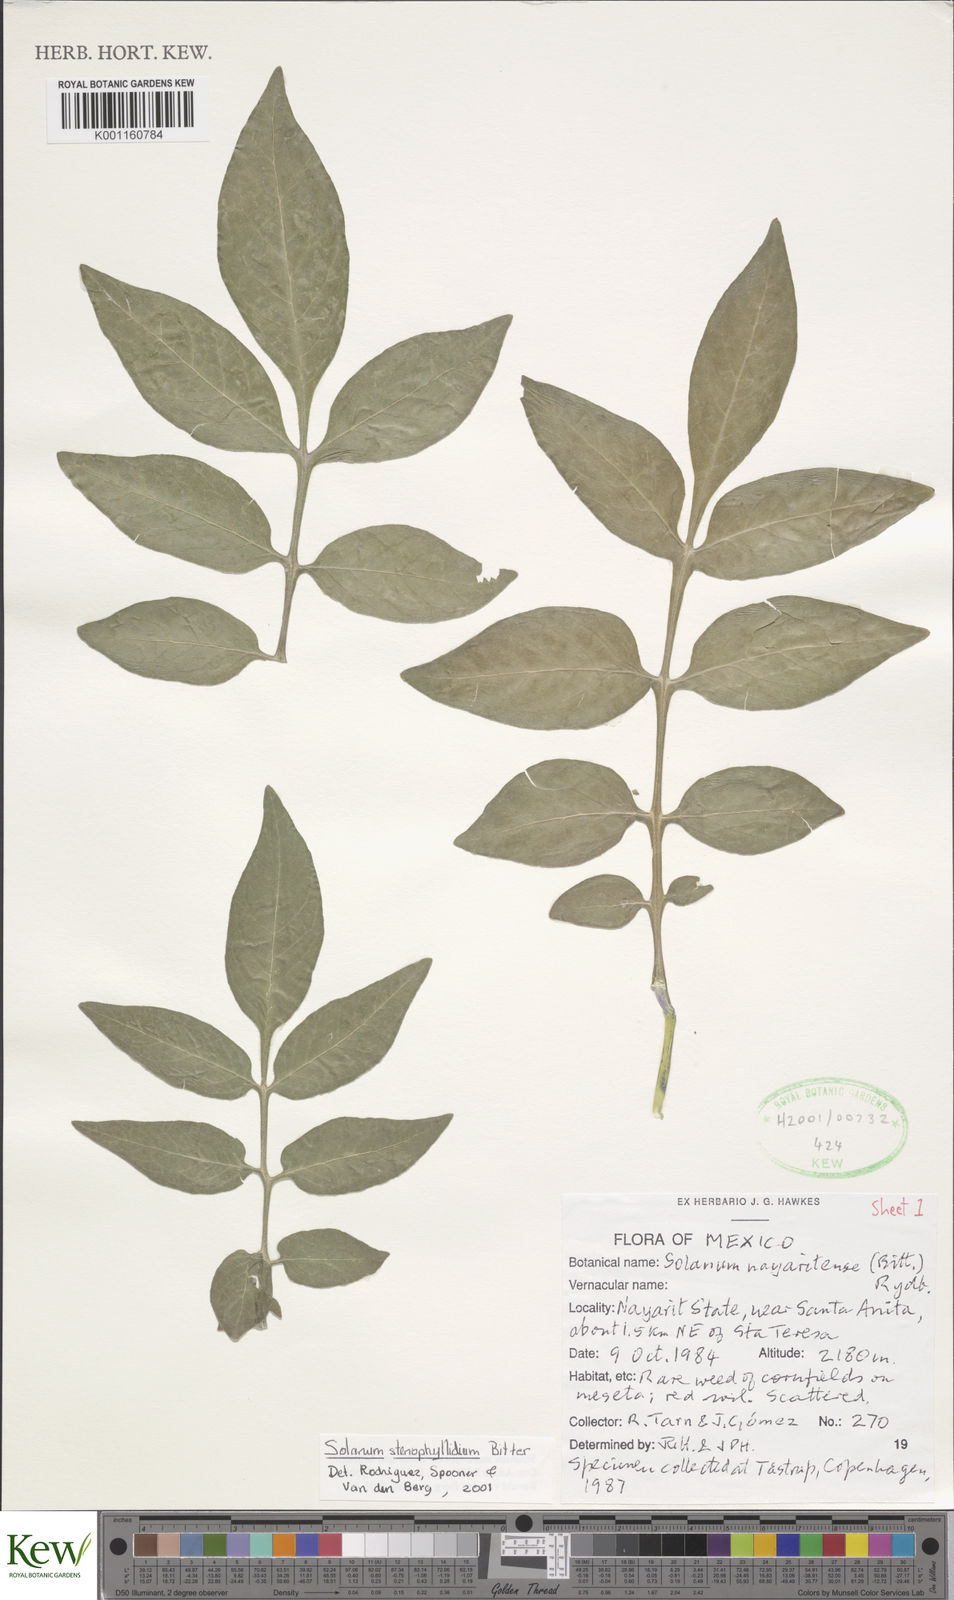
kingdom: Plantae
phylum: Tracheophyta
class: Magnoliopsida
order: Solanales
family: Solanaceae
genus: Solanum
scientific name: Solanum stenophyllidium
